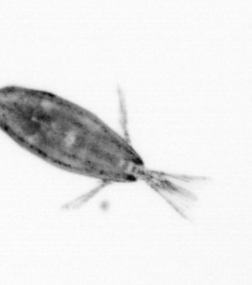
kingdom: Animalia
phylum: Arthropoda
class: Maxillopoda
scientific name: Maxillopoda
